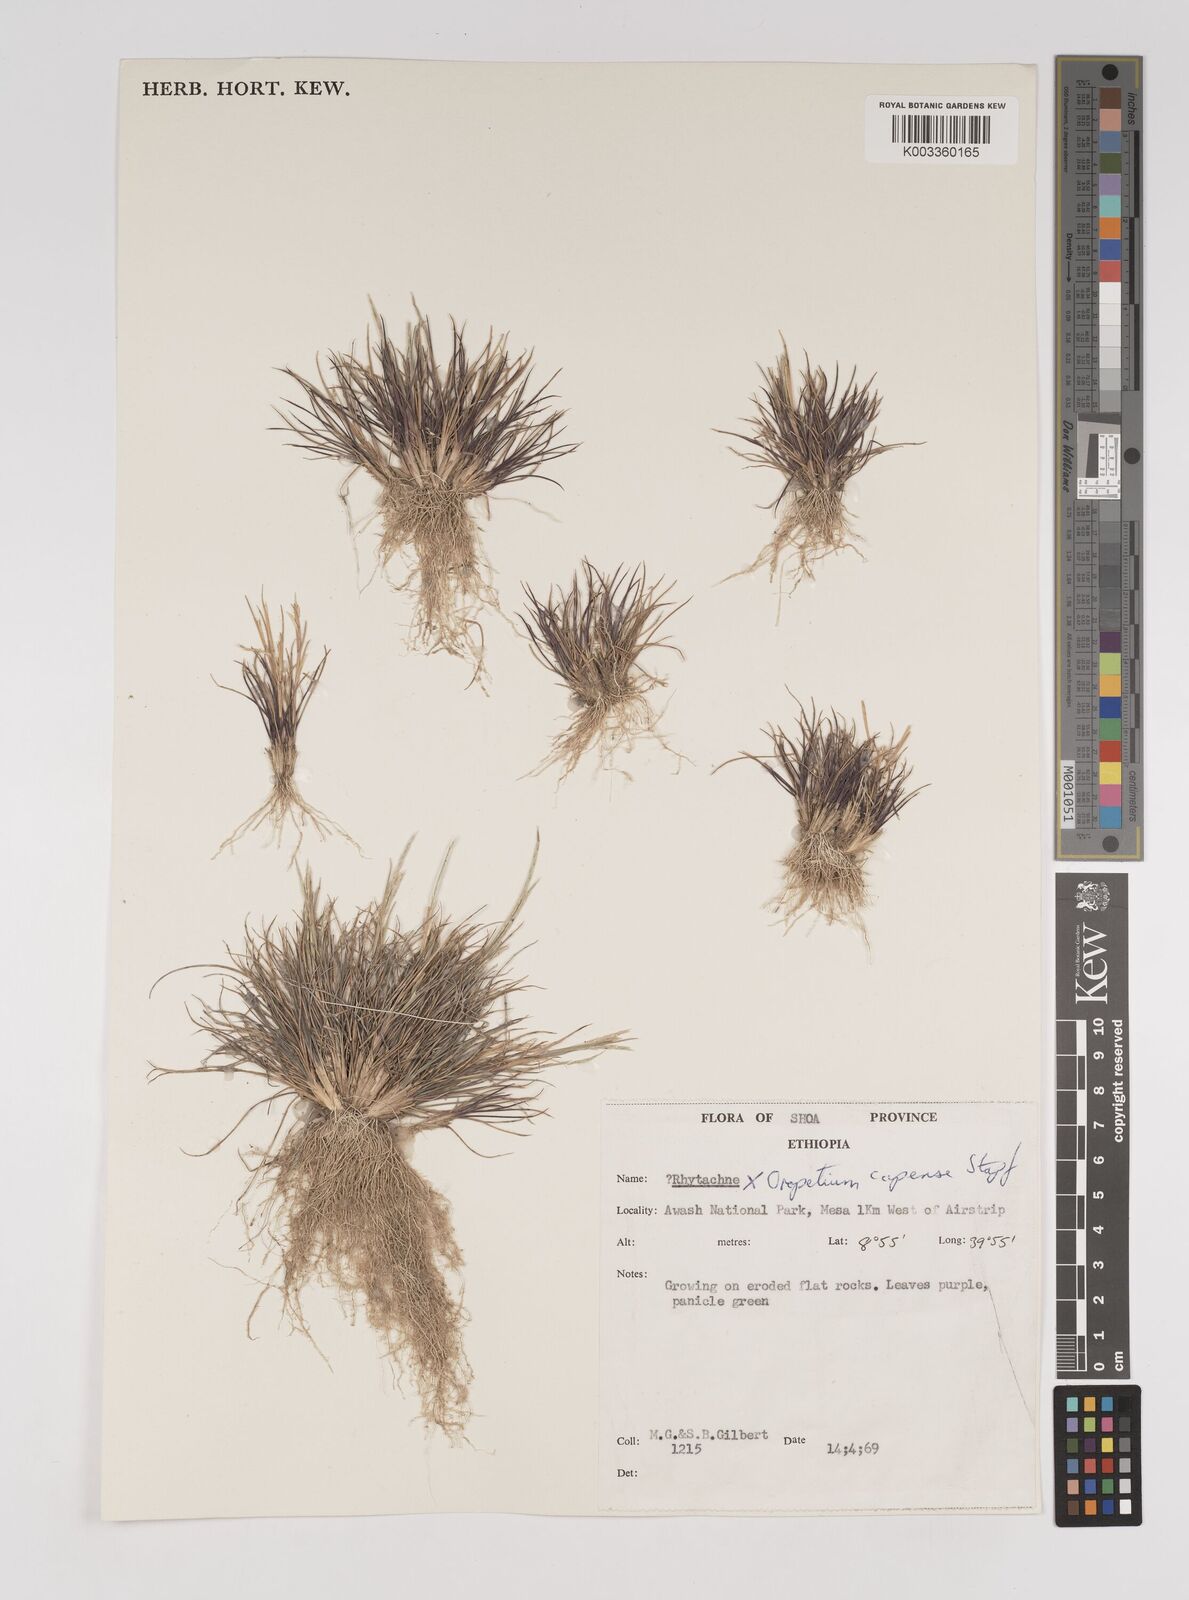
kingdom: Plantae
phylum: Tracheophyta
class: Liliopsida
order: Poales
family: Poaceae
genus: Oropetium
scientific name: Oropetium capense
